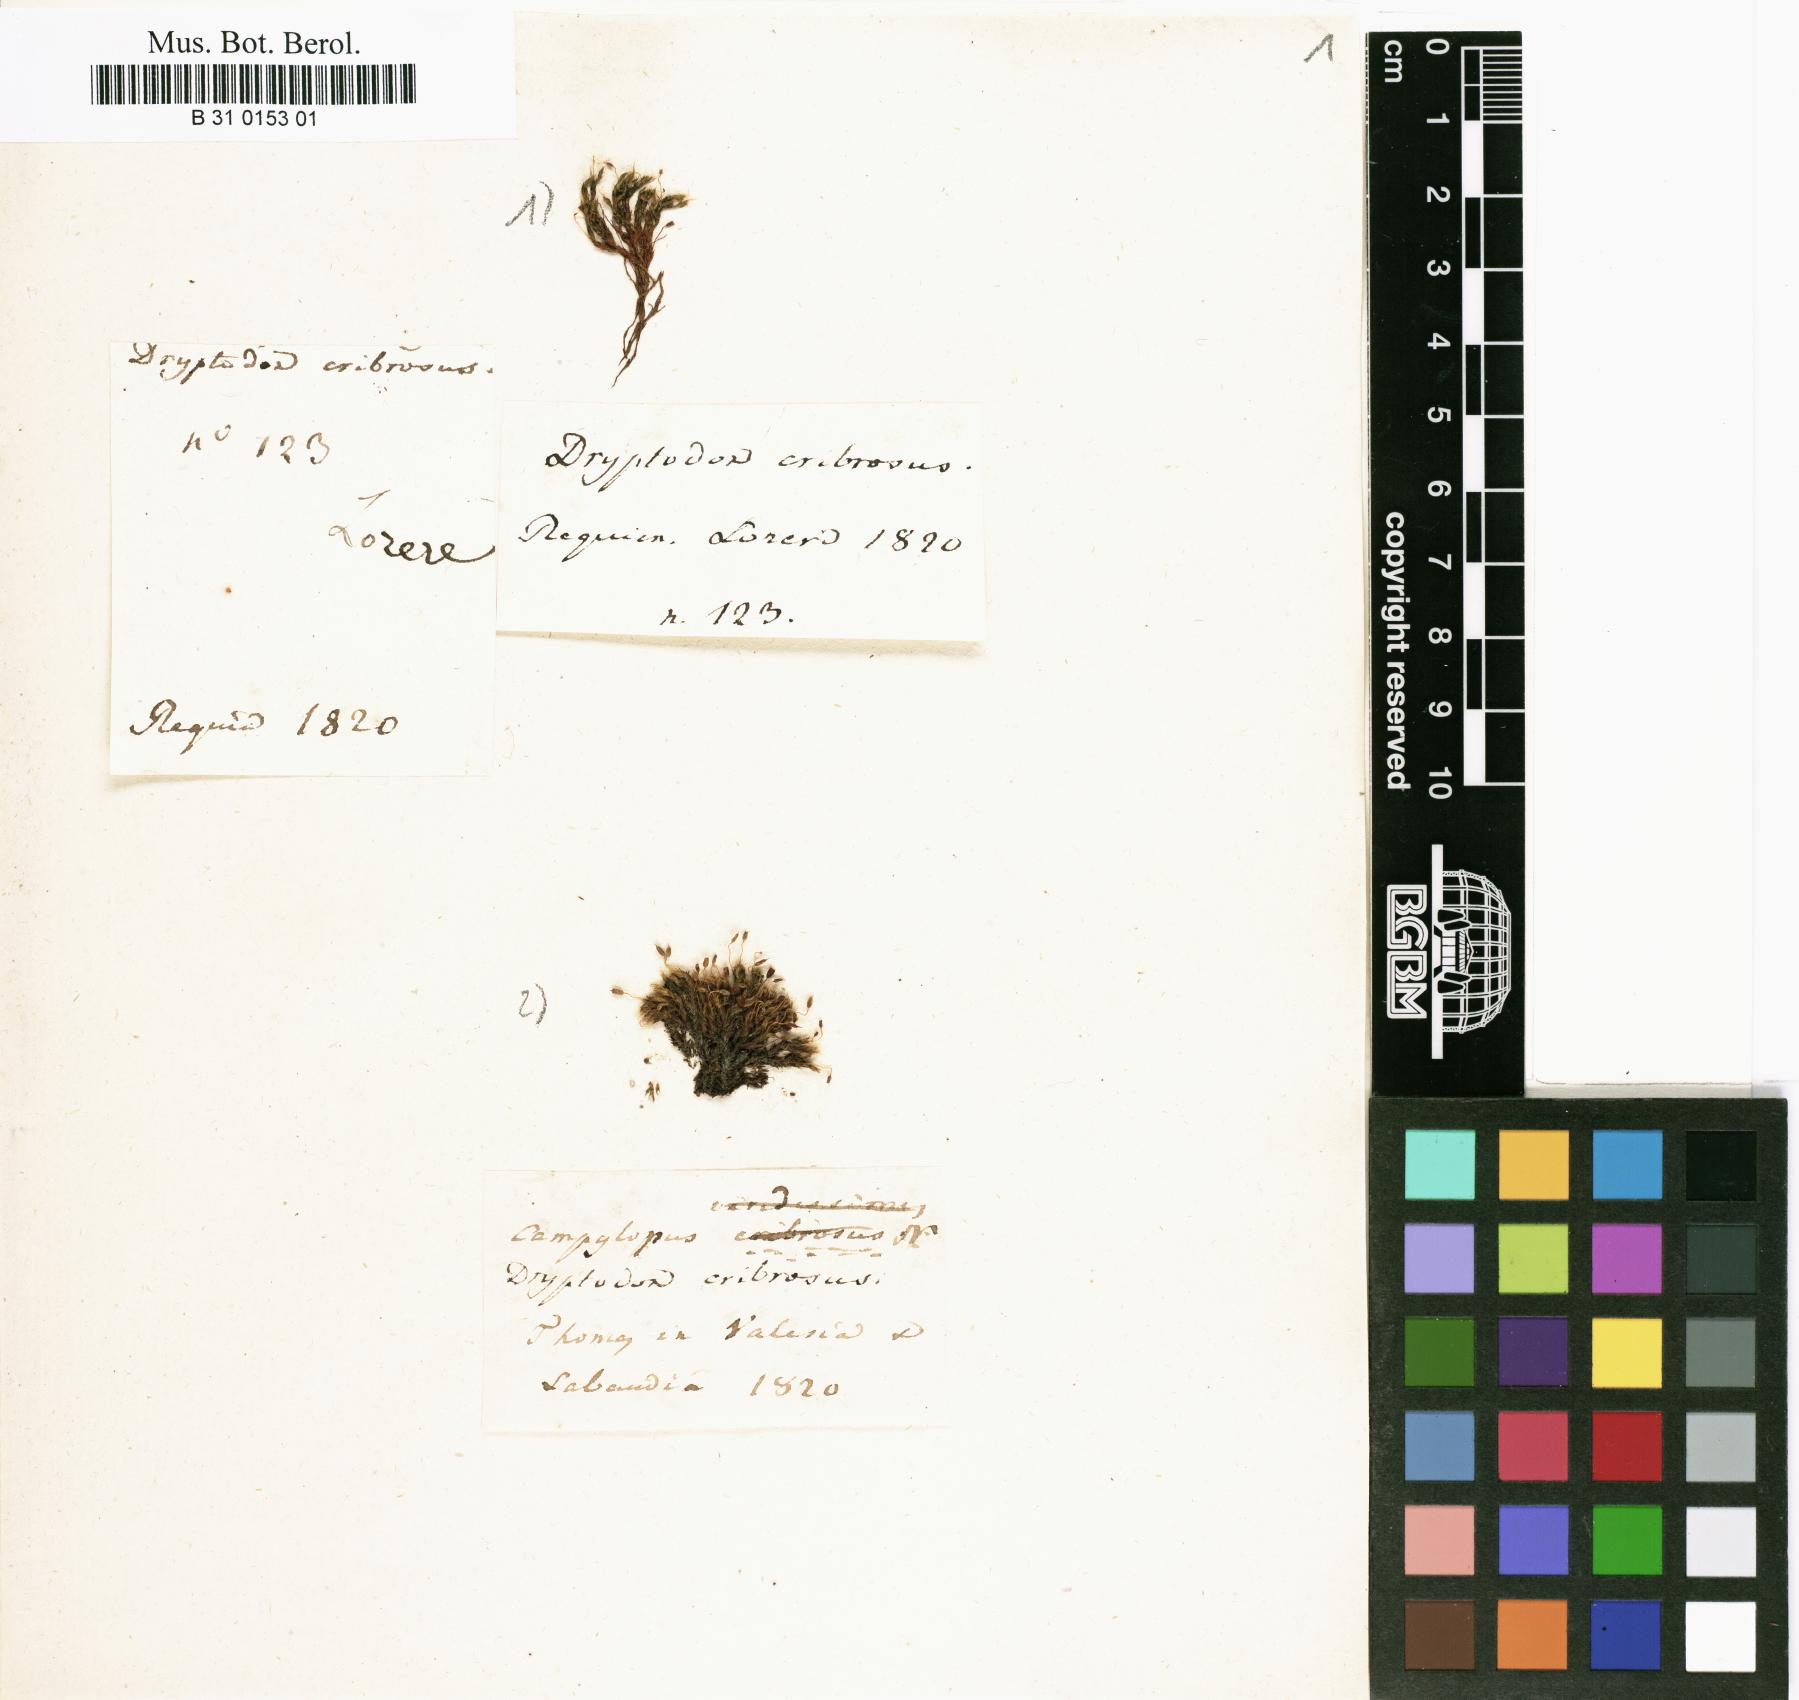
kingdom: Plantae
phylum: Bryophyta
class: Bryopsida
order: Grimmiales
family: Grimmiaceae
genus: Grimmia
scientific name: Grimmia pulvinata
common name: Grey-cushioned grimmia
